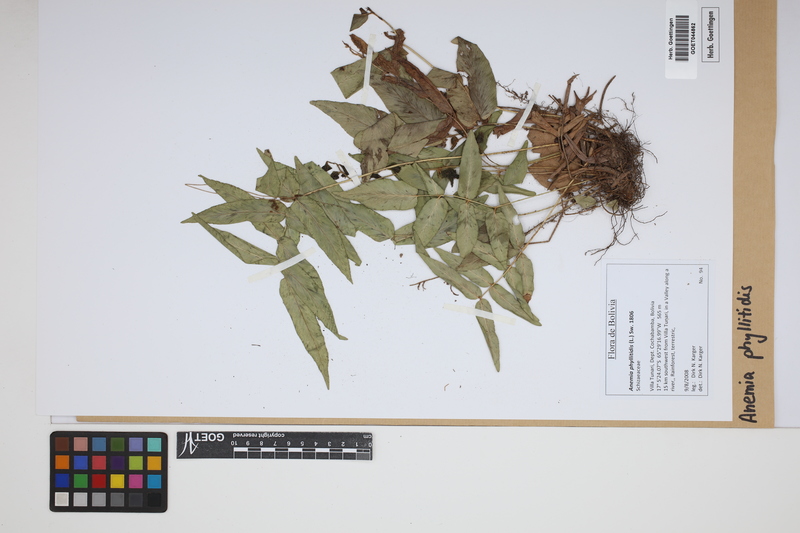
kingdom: Plantae
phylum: Tracheophyta
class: Polypodiopsida
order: Schizaeales
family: Anemiaceae
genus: Anemia
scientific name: Anemia phyllitidis
